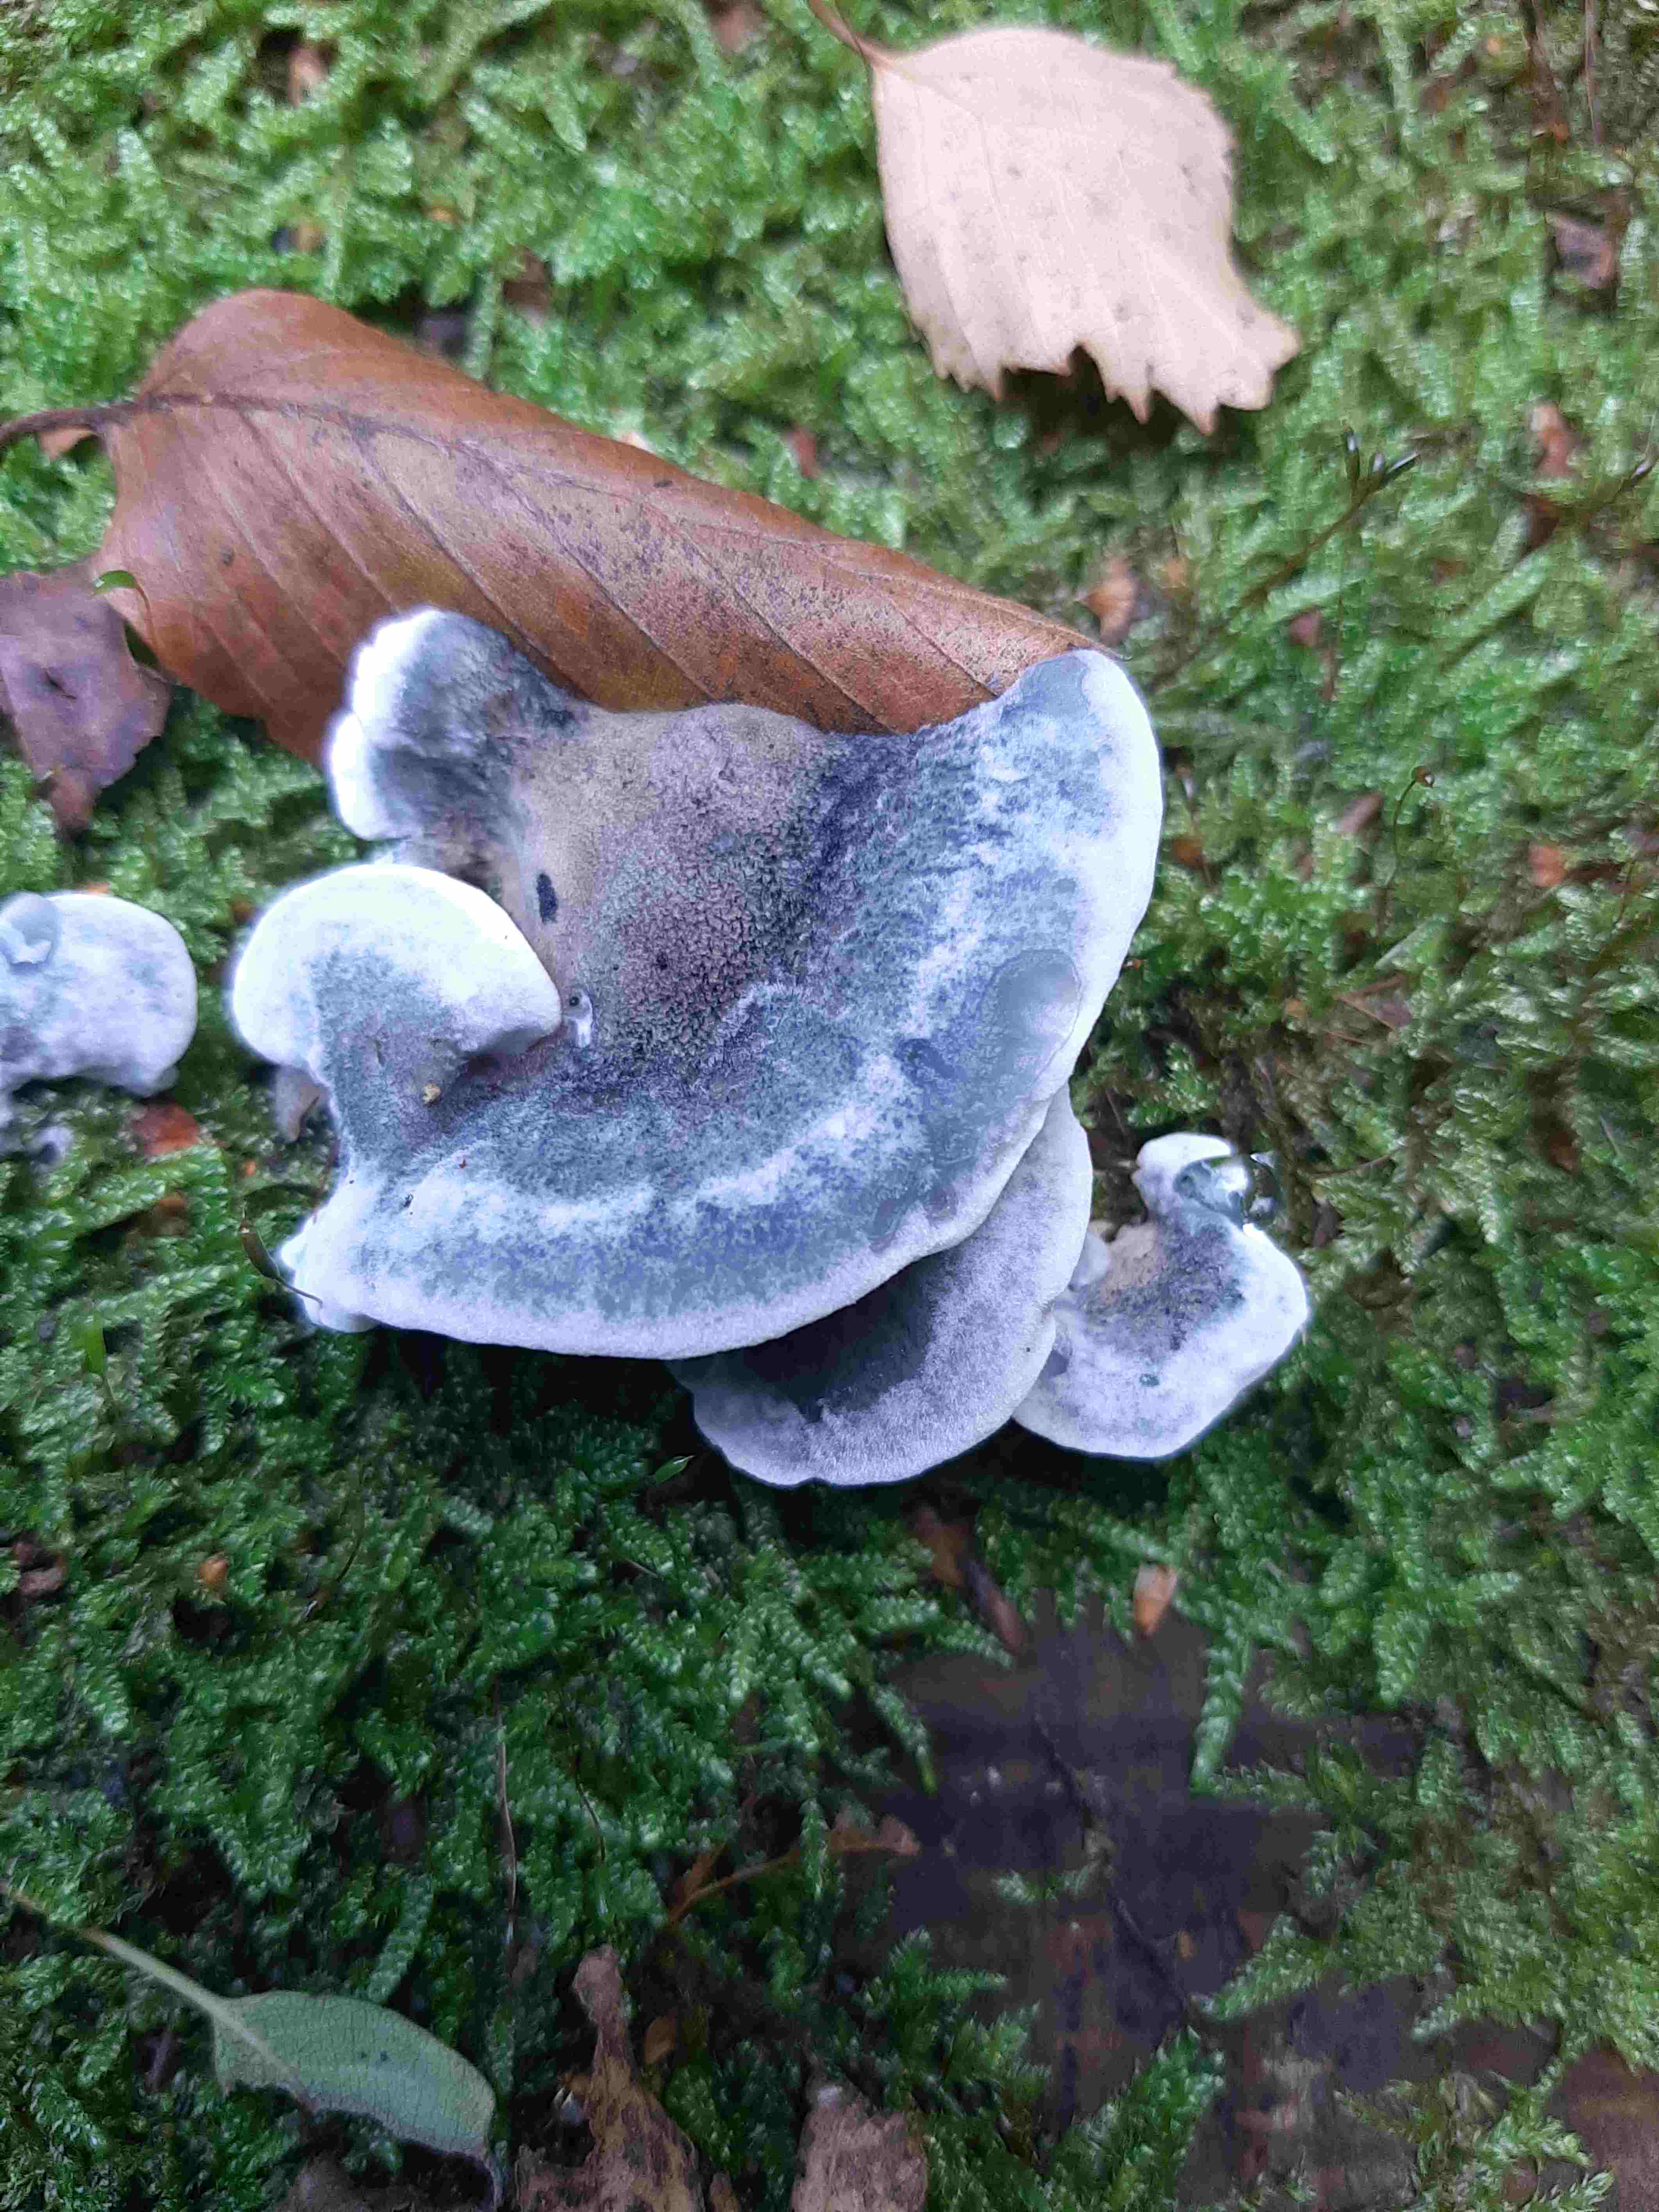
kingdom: Fungi
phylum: Basidiomycota
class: Agaricomycetes
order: Polyporales
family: Polyporaceae
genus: Cyanosporus
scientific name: Cyanosporus caesius
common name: blålig kødporesvamp
